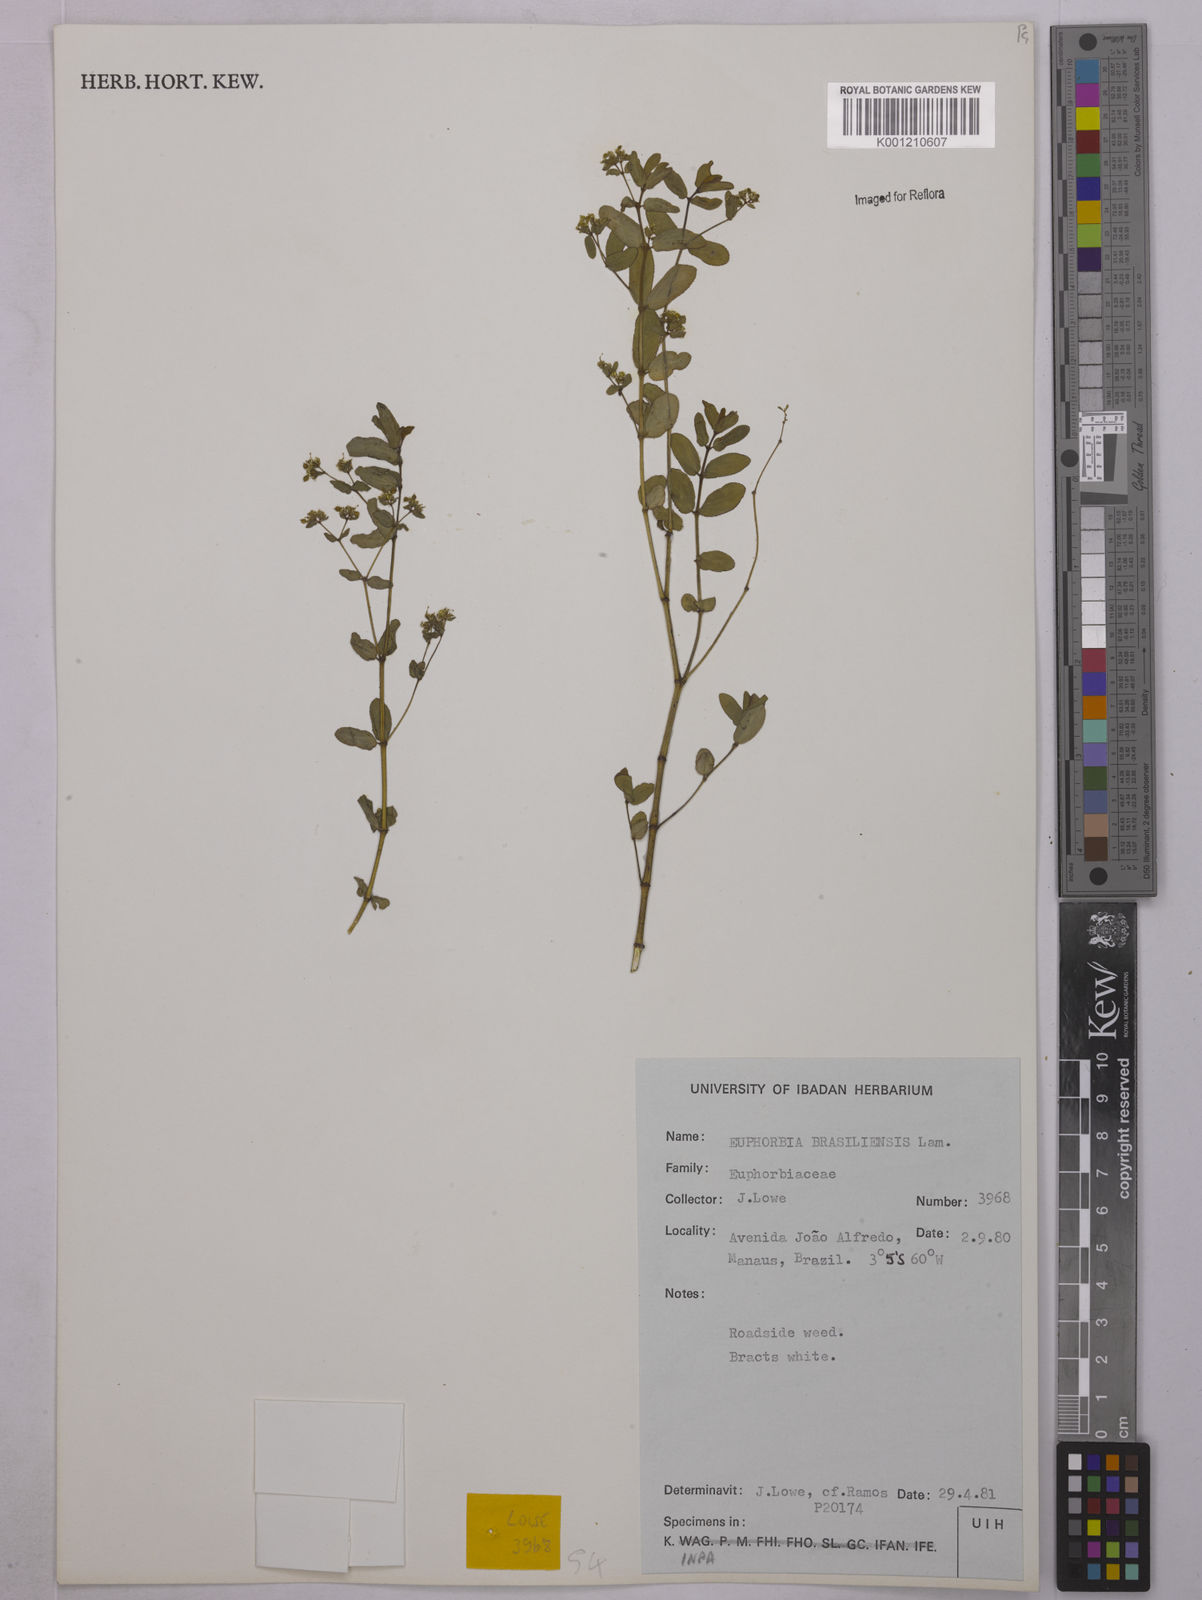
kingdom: Plantae
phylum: Tracheophyta
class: Magnoliopsida
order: Malpighiales
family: Euphorbiaceae
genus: Euphorbia
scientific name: Euphorbia hyssopifolia
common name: Hyssopleaf sandmat
